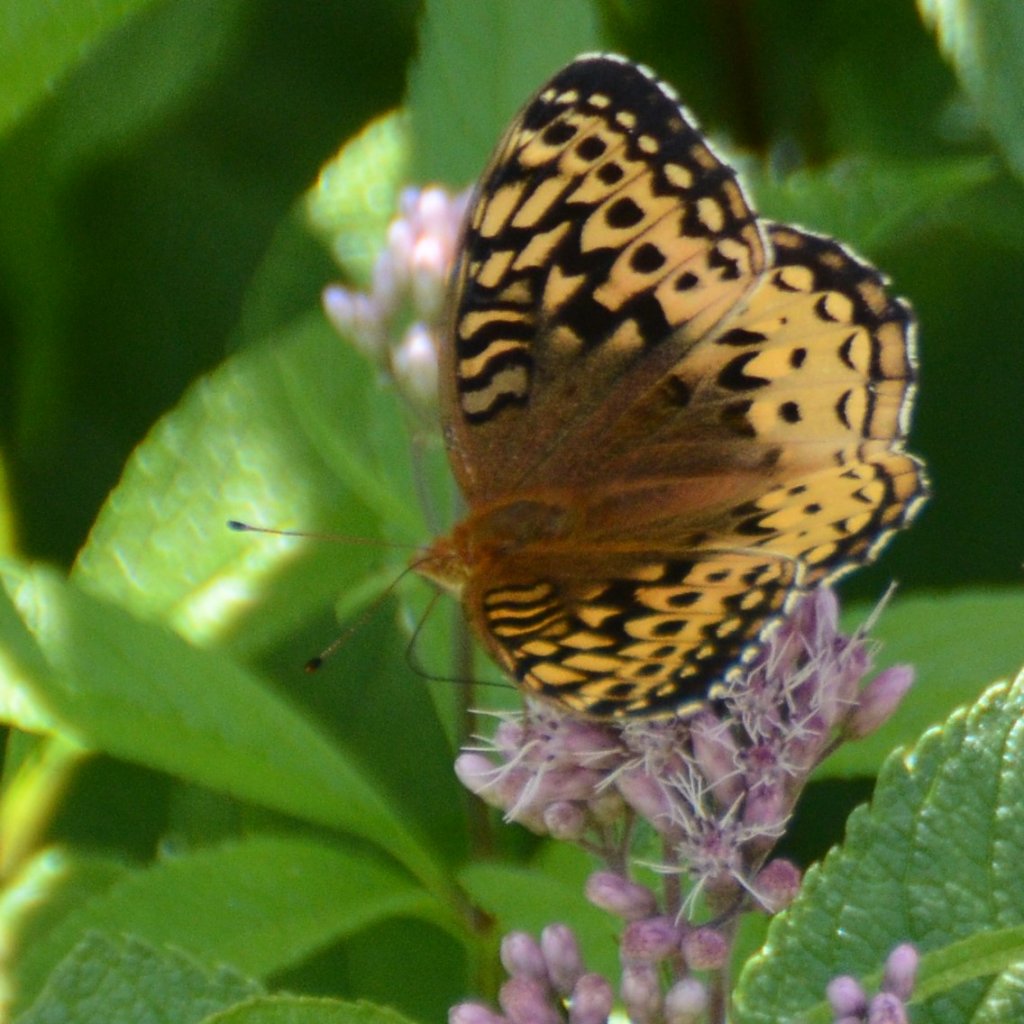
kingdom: Animalia
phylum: Arthropoda
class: Insecta
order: Lepidoptera
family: Nymphalidae
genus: Speyeria
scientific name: Speyeria cybele
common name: Great Spangled Fritillary
